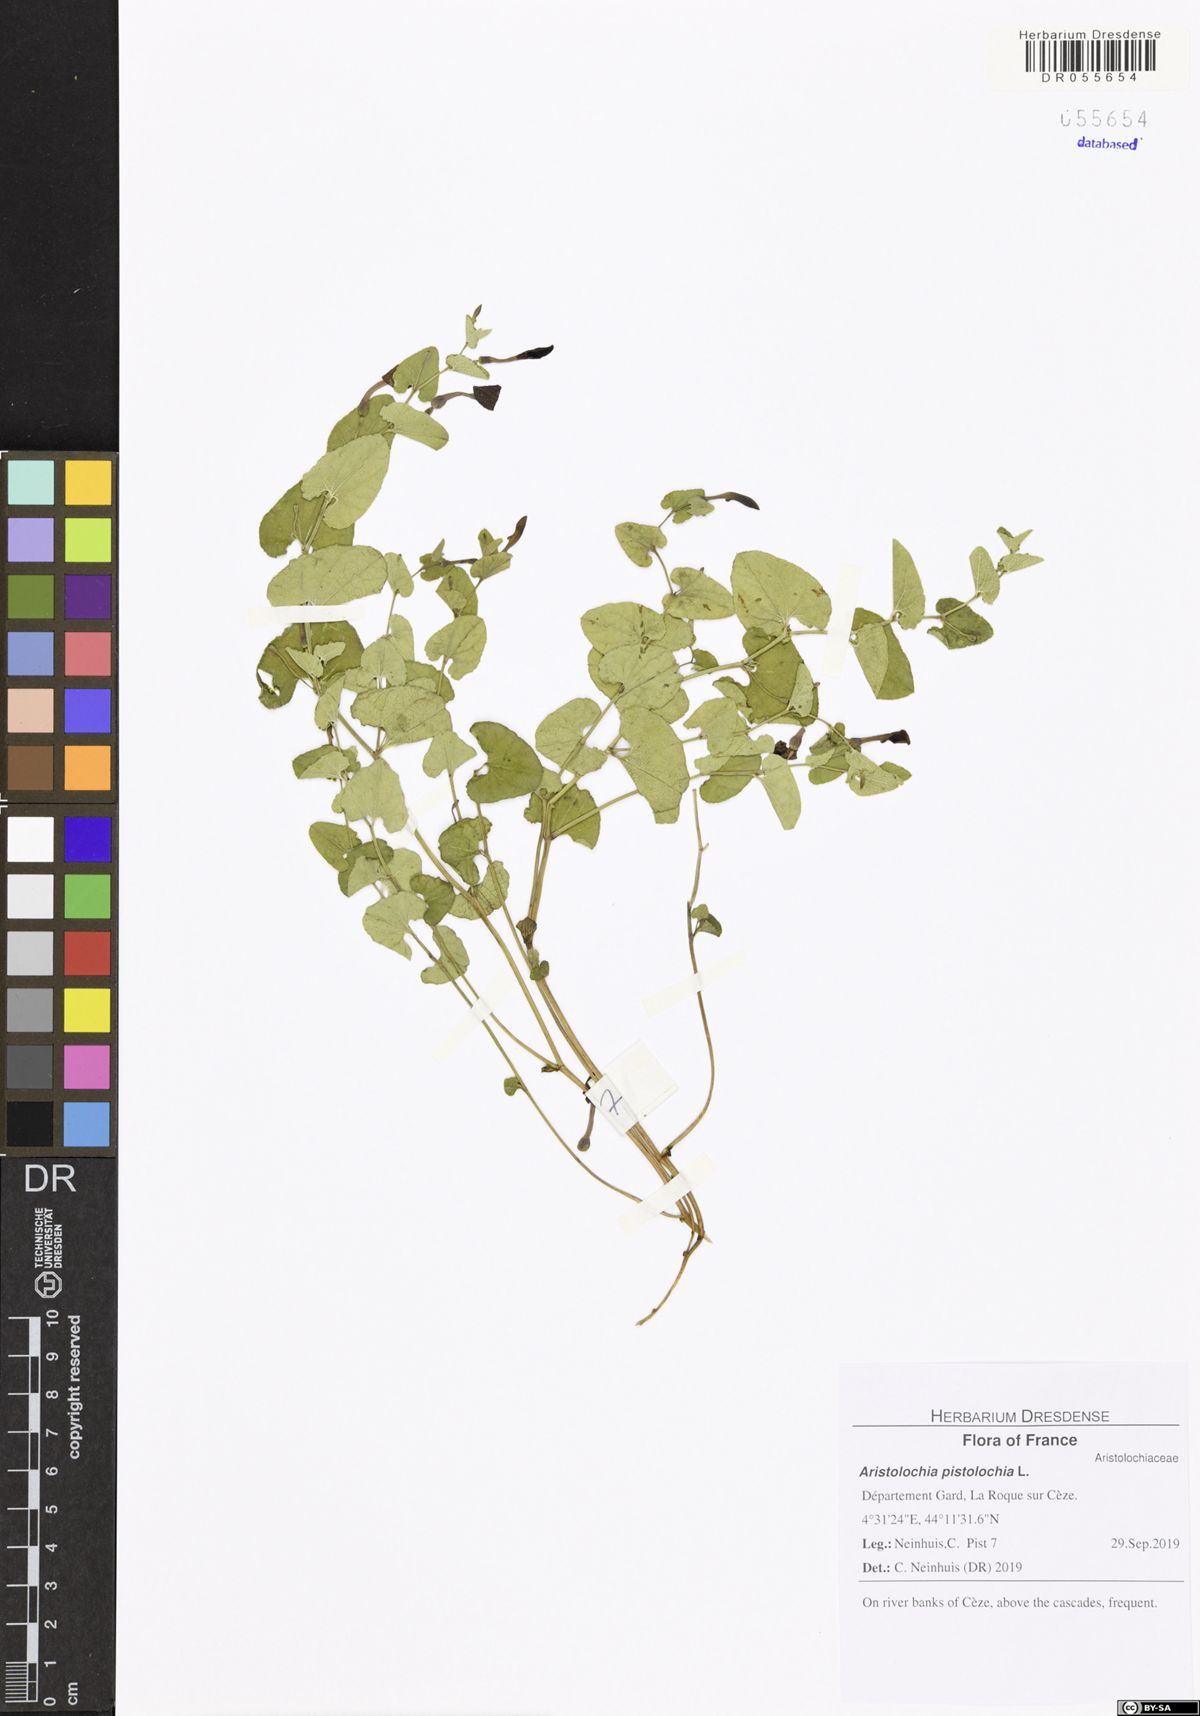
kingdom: Plantae
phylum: Tracheophyta
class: Magnoliopsida
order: Piperales
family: Aristolochiaceae
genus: Aristolochia
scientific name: Aristolochia pistolochia
